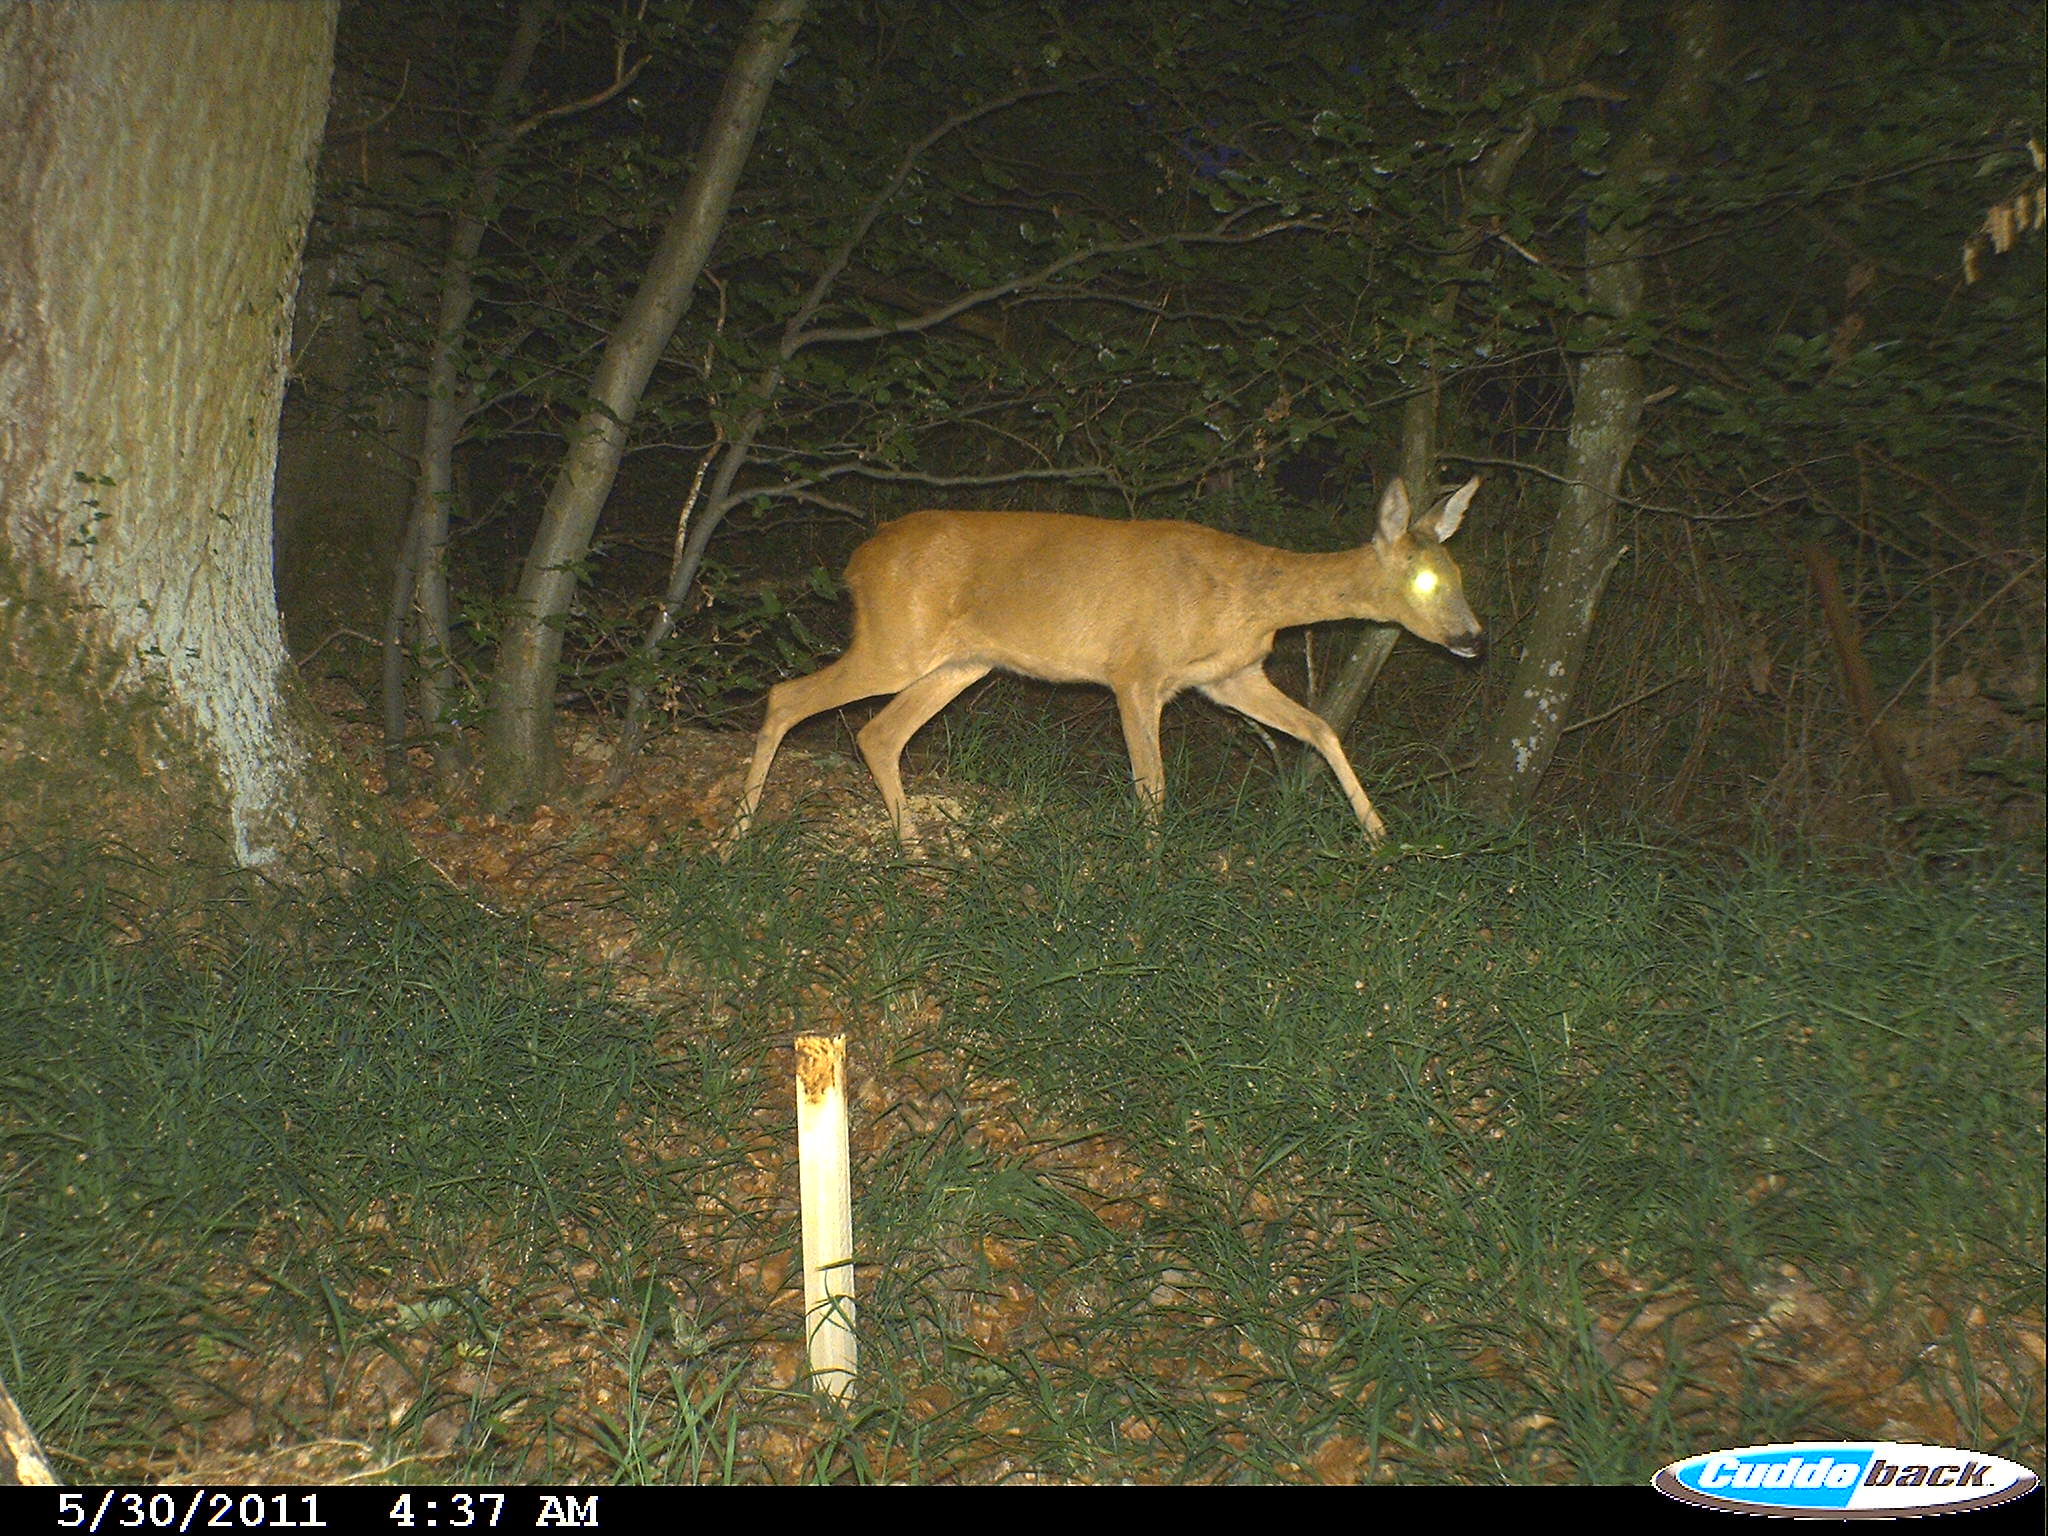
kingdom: Animalia
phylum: Chordata
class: Mammalia
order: Artiodactyla
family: Cervidae
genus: Capreolus
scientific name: Capreolus capreolus
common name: Western roe deer
